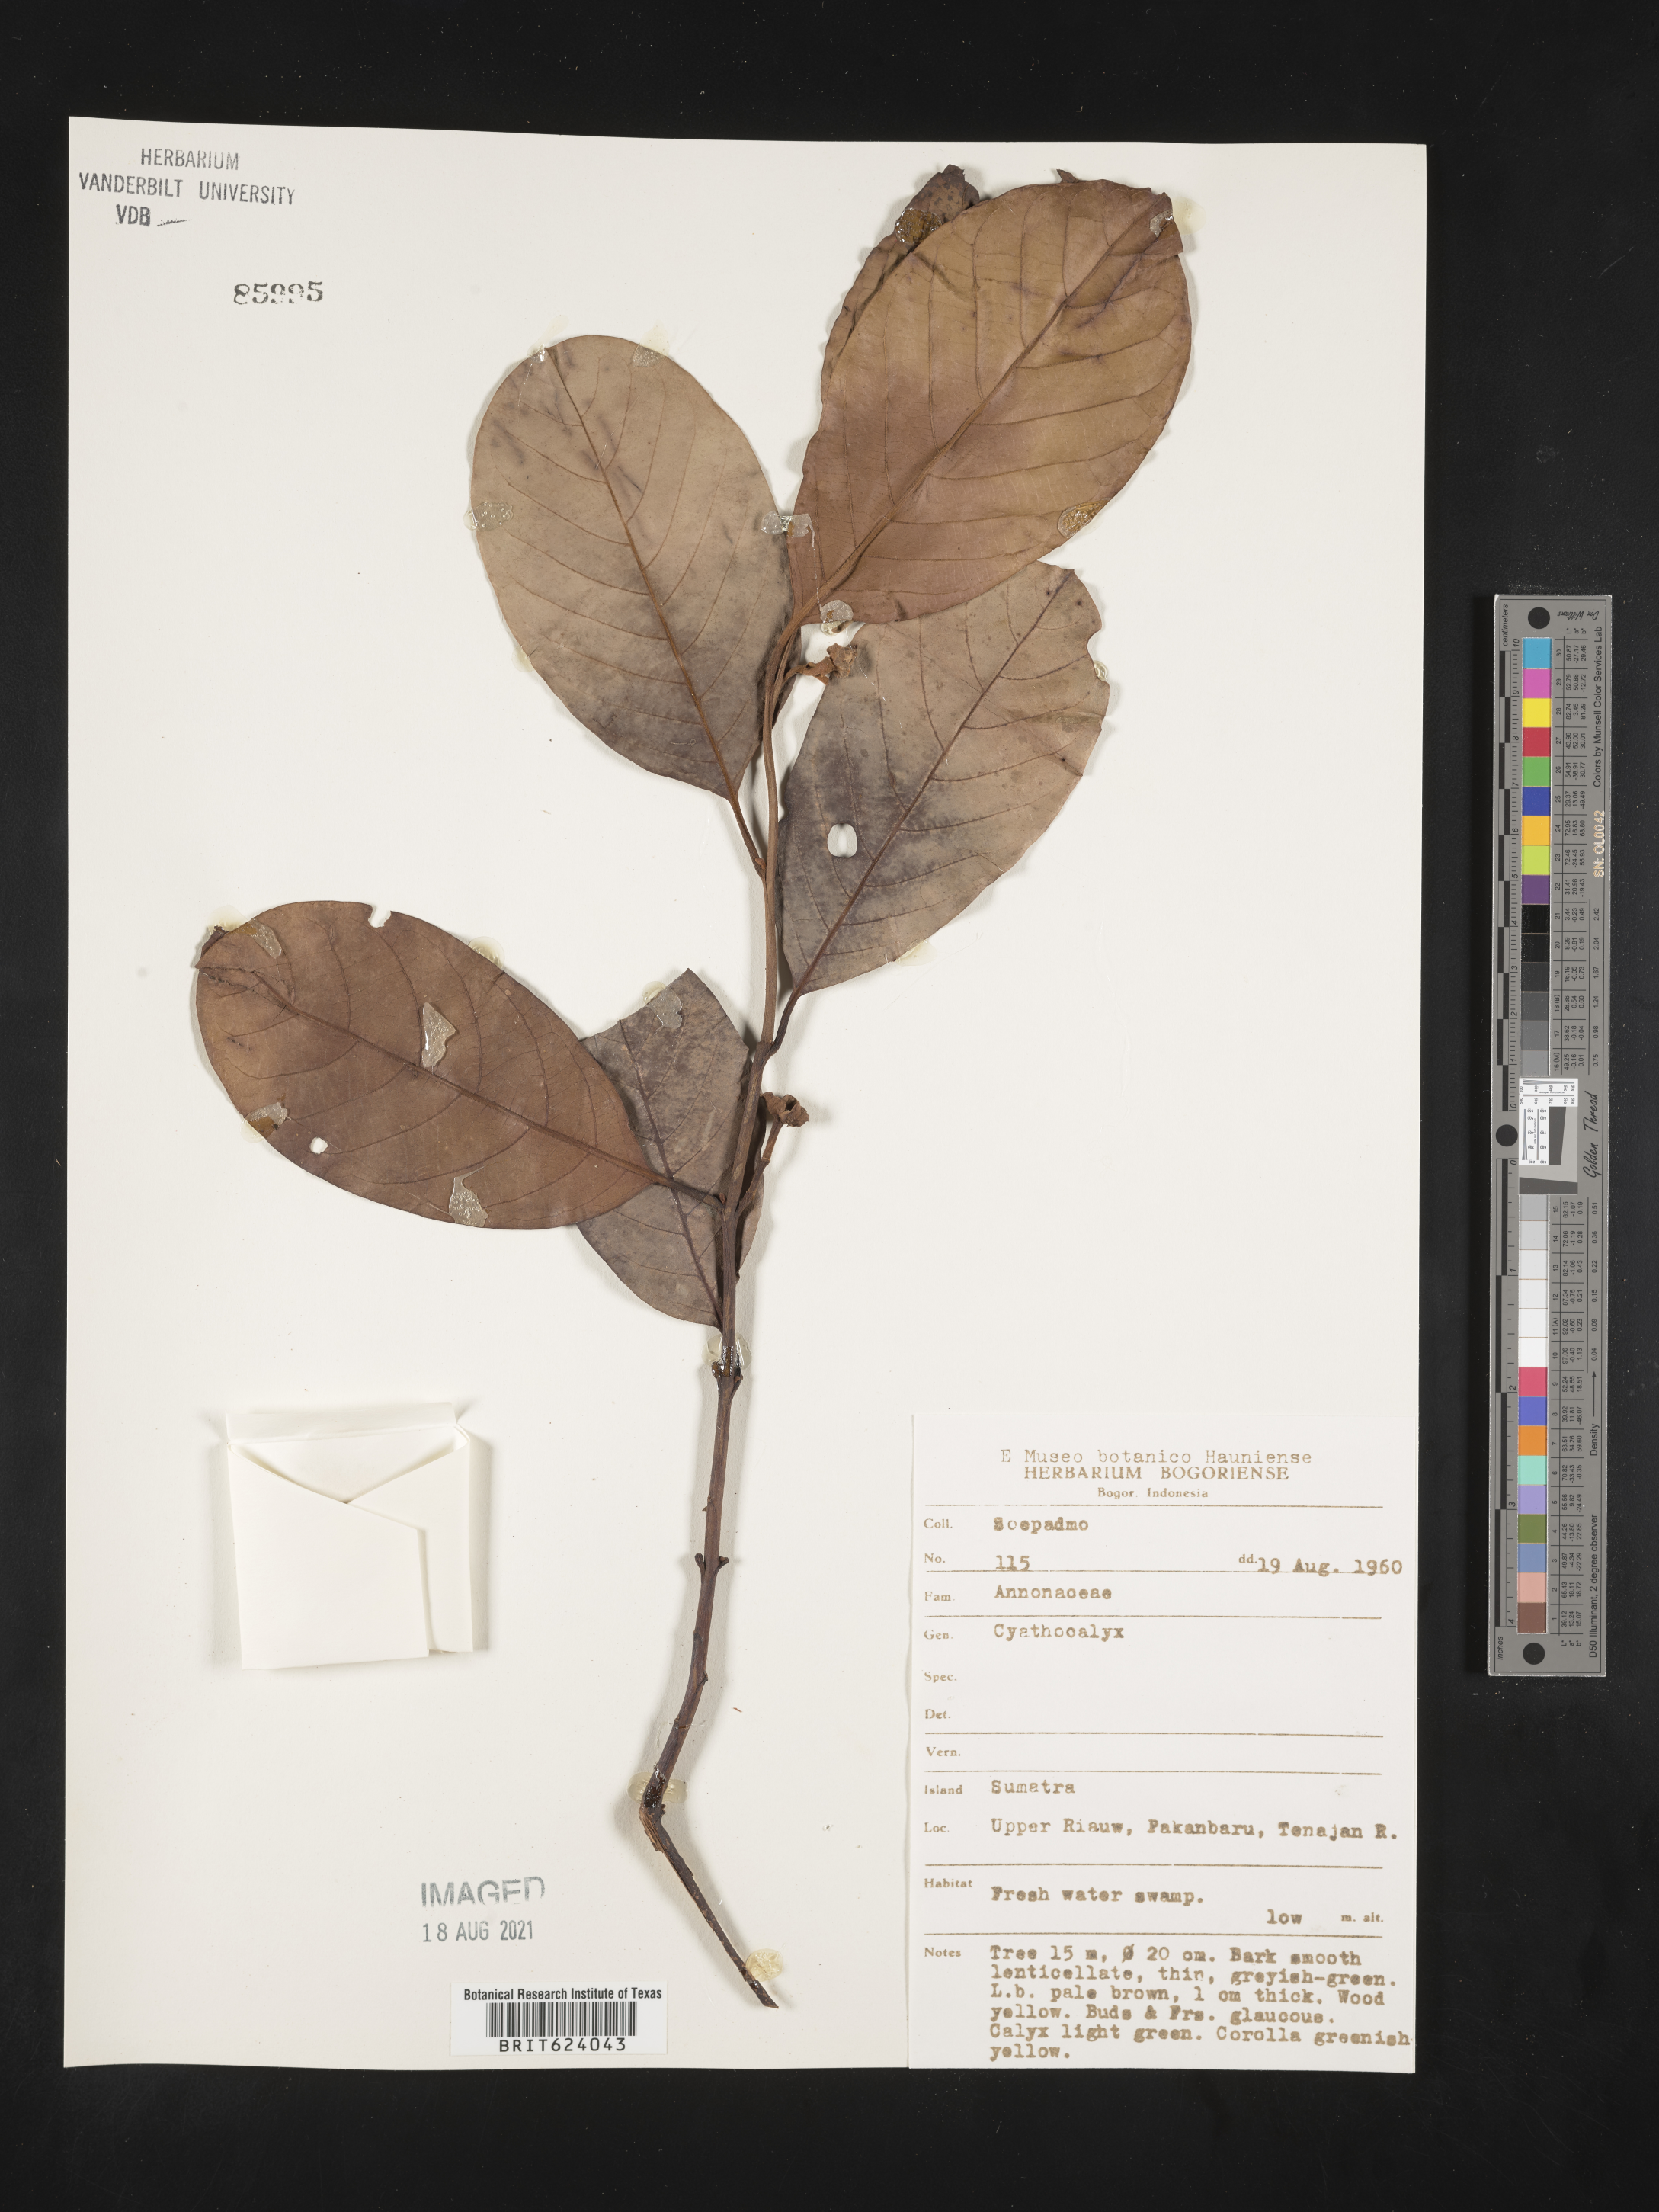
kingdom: Plantae
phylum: Tracheophyta
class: Magnoliopsida
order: Magnoliales
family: Annonaceae
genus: Cyathocalyx
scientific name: Cyathocalyx
